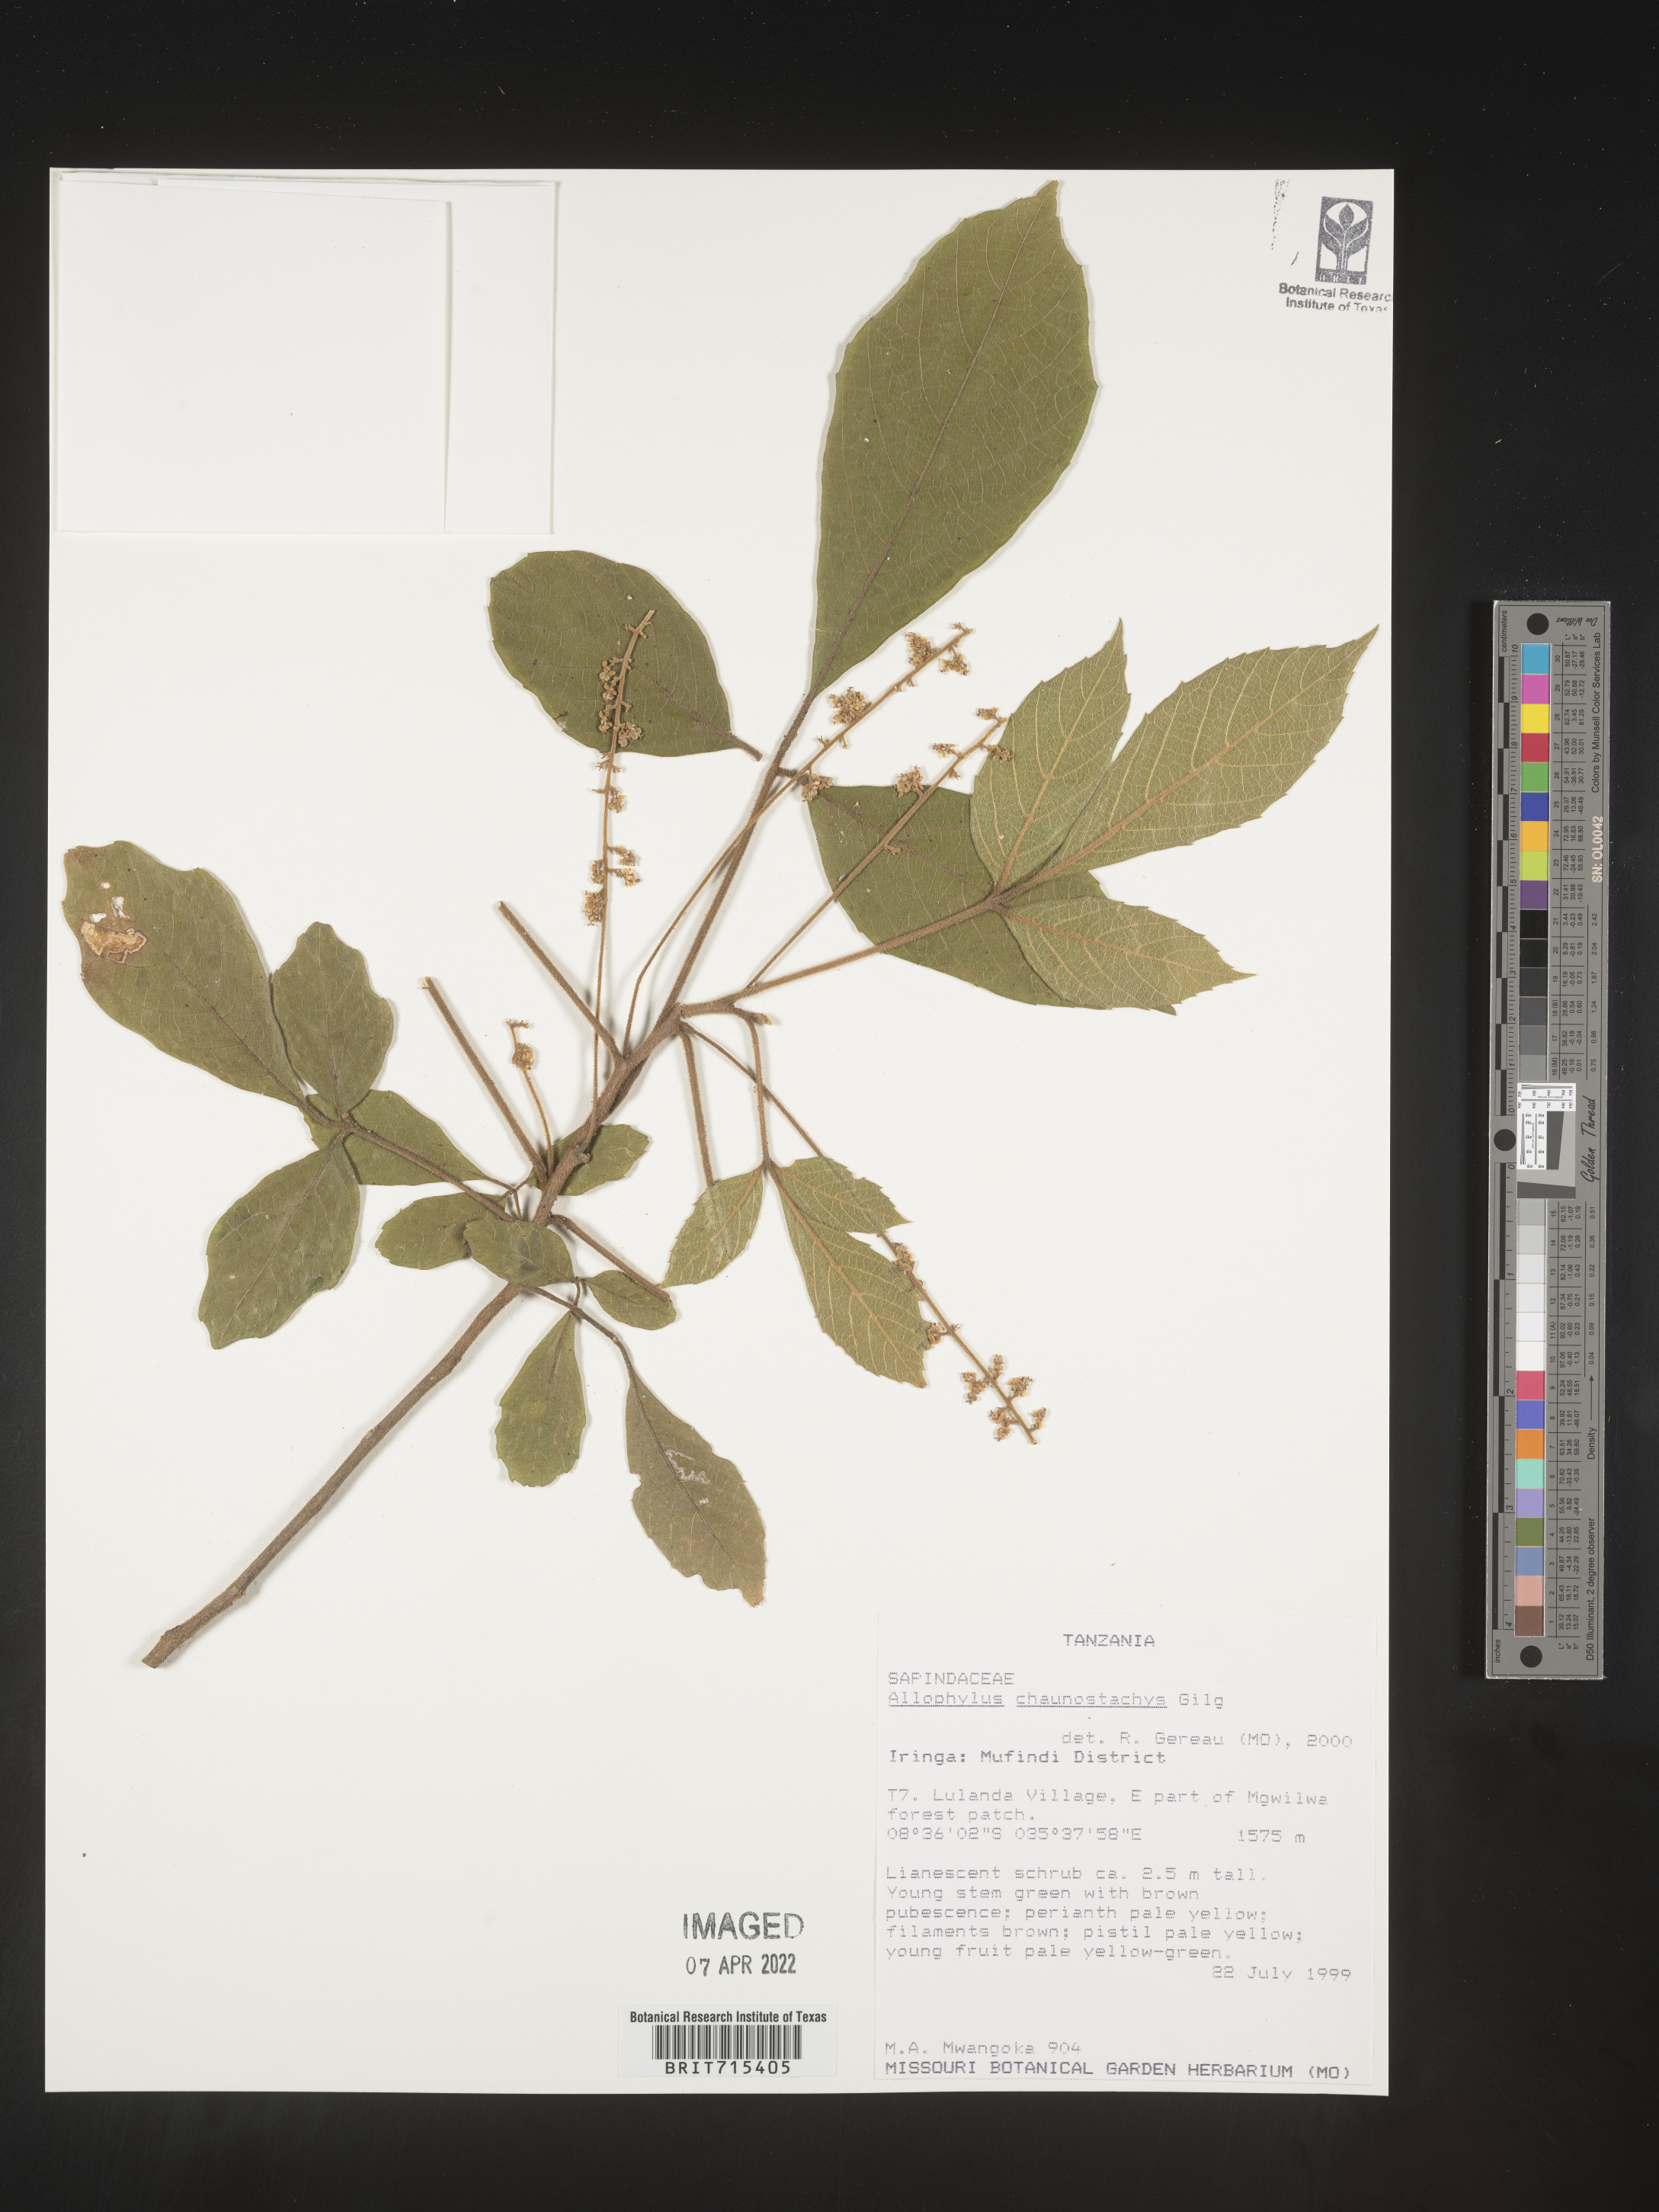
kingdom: Plantae
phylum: Tracheophyta
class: Magnoliopsida
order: Sapindales
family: Sapindaceae
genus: Allophylus
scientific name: Allophylus
